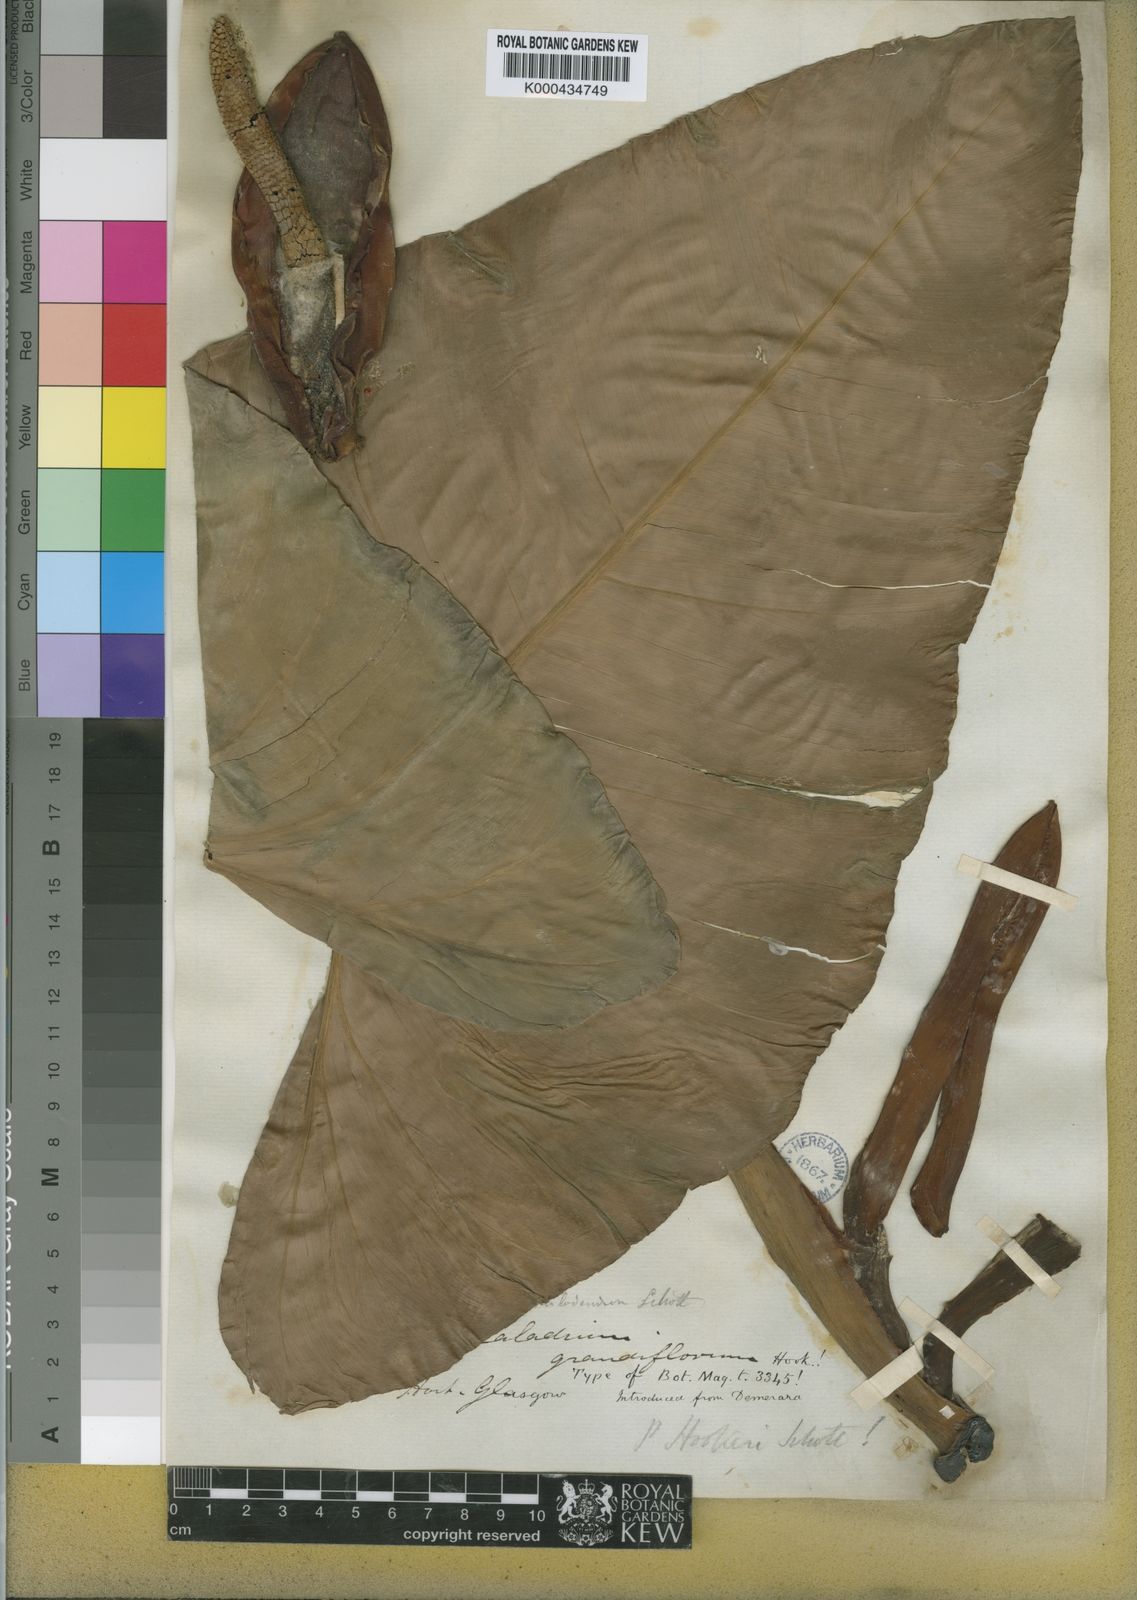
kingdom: Plantae
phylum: Tracheophyta
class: Liliopsida
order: Alismatales
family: Araceae
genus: Philodendron
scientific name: Philodendron latifolium
